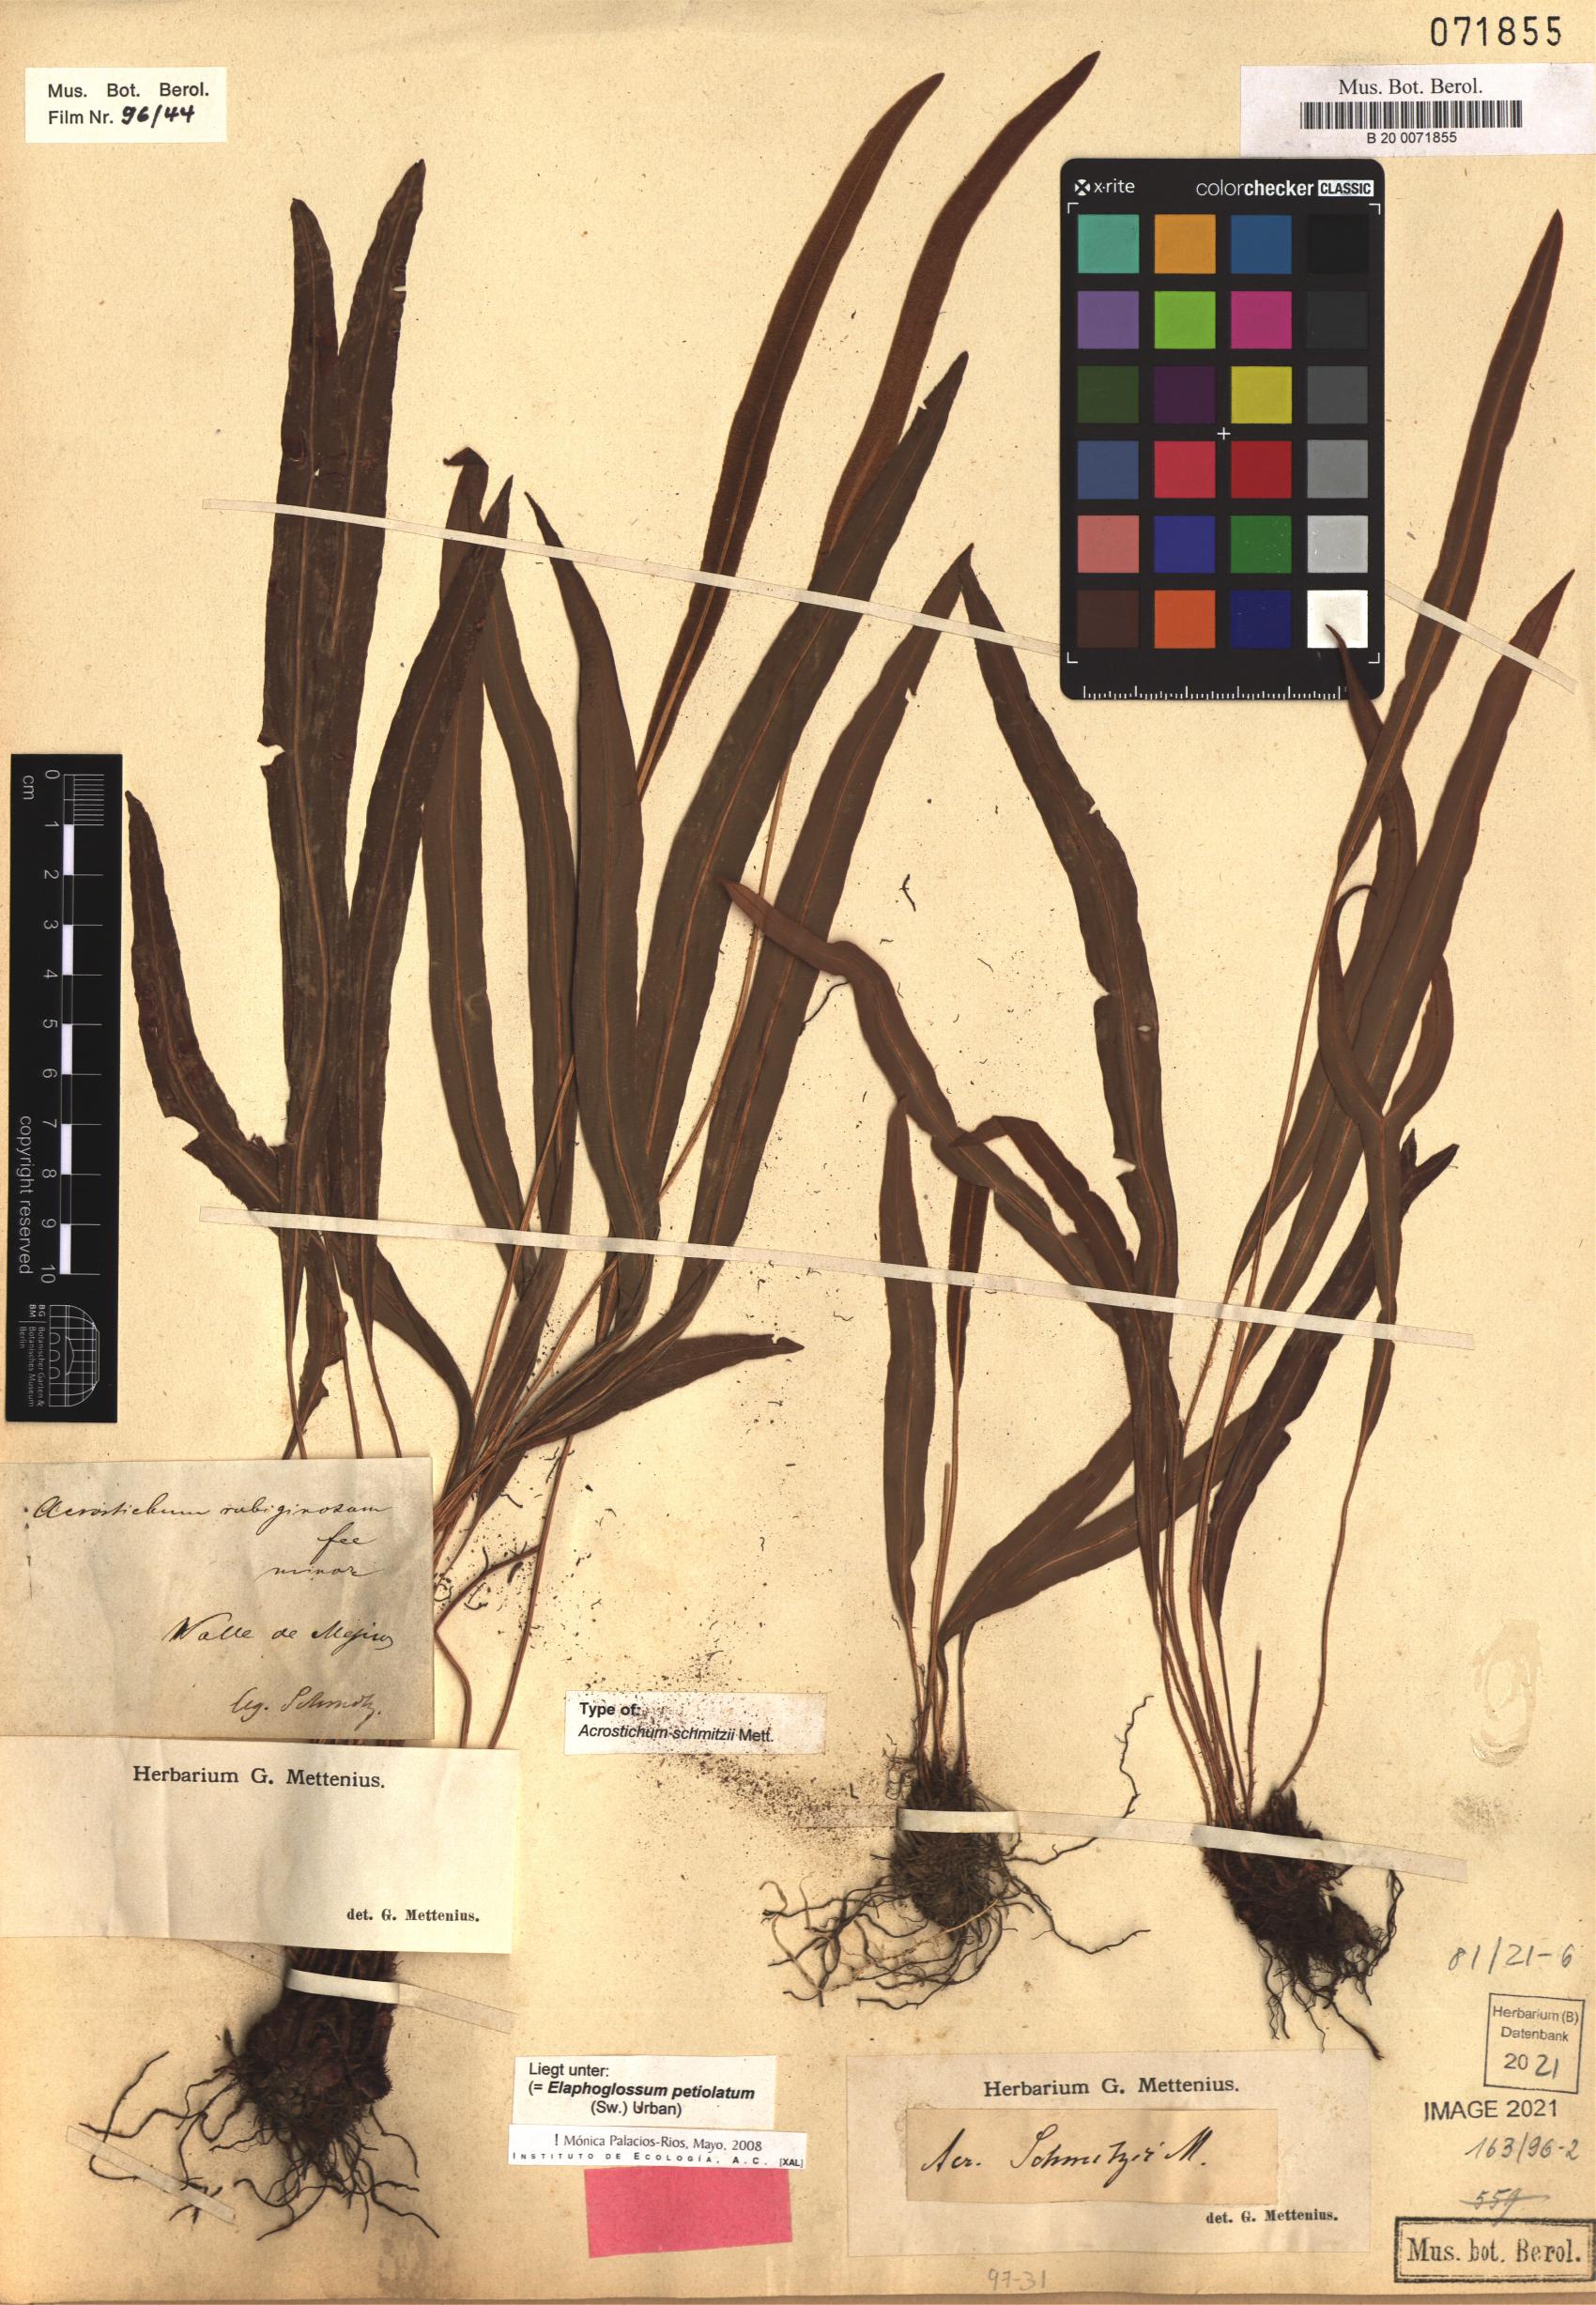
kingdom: Plantae
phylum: Tracheophyta
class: Polypodiopsida
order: Polypodiales
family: Dryopteridaceae
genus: Elaphoglossum
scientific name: Elaphoglossum petiolatum
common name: Graceful tonguefern
